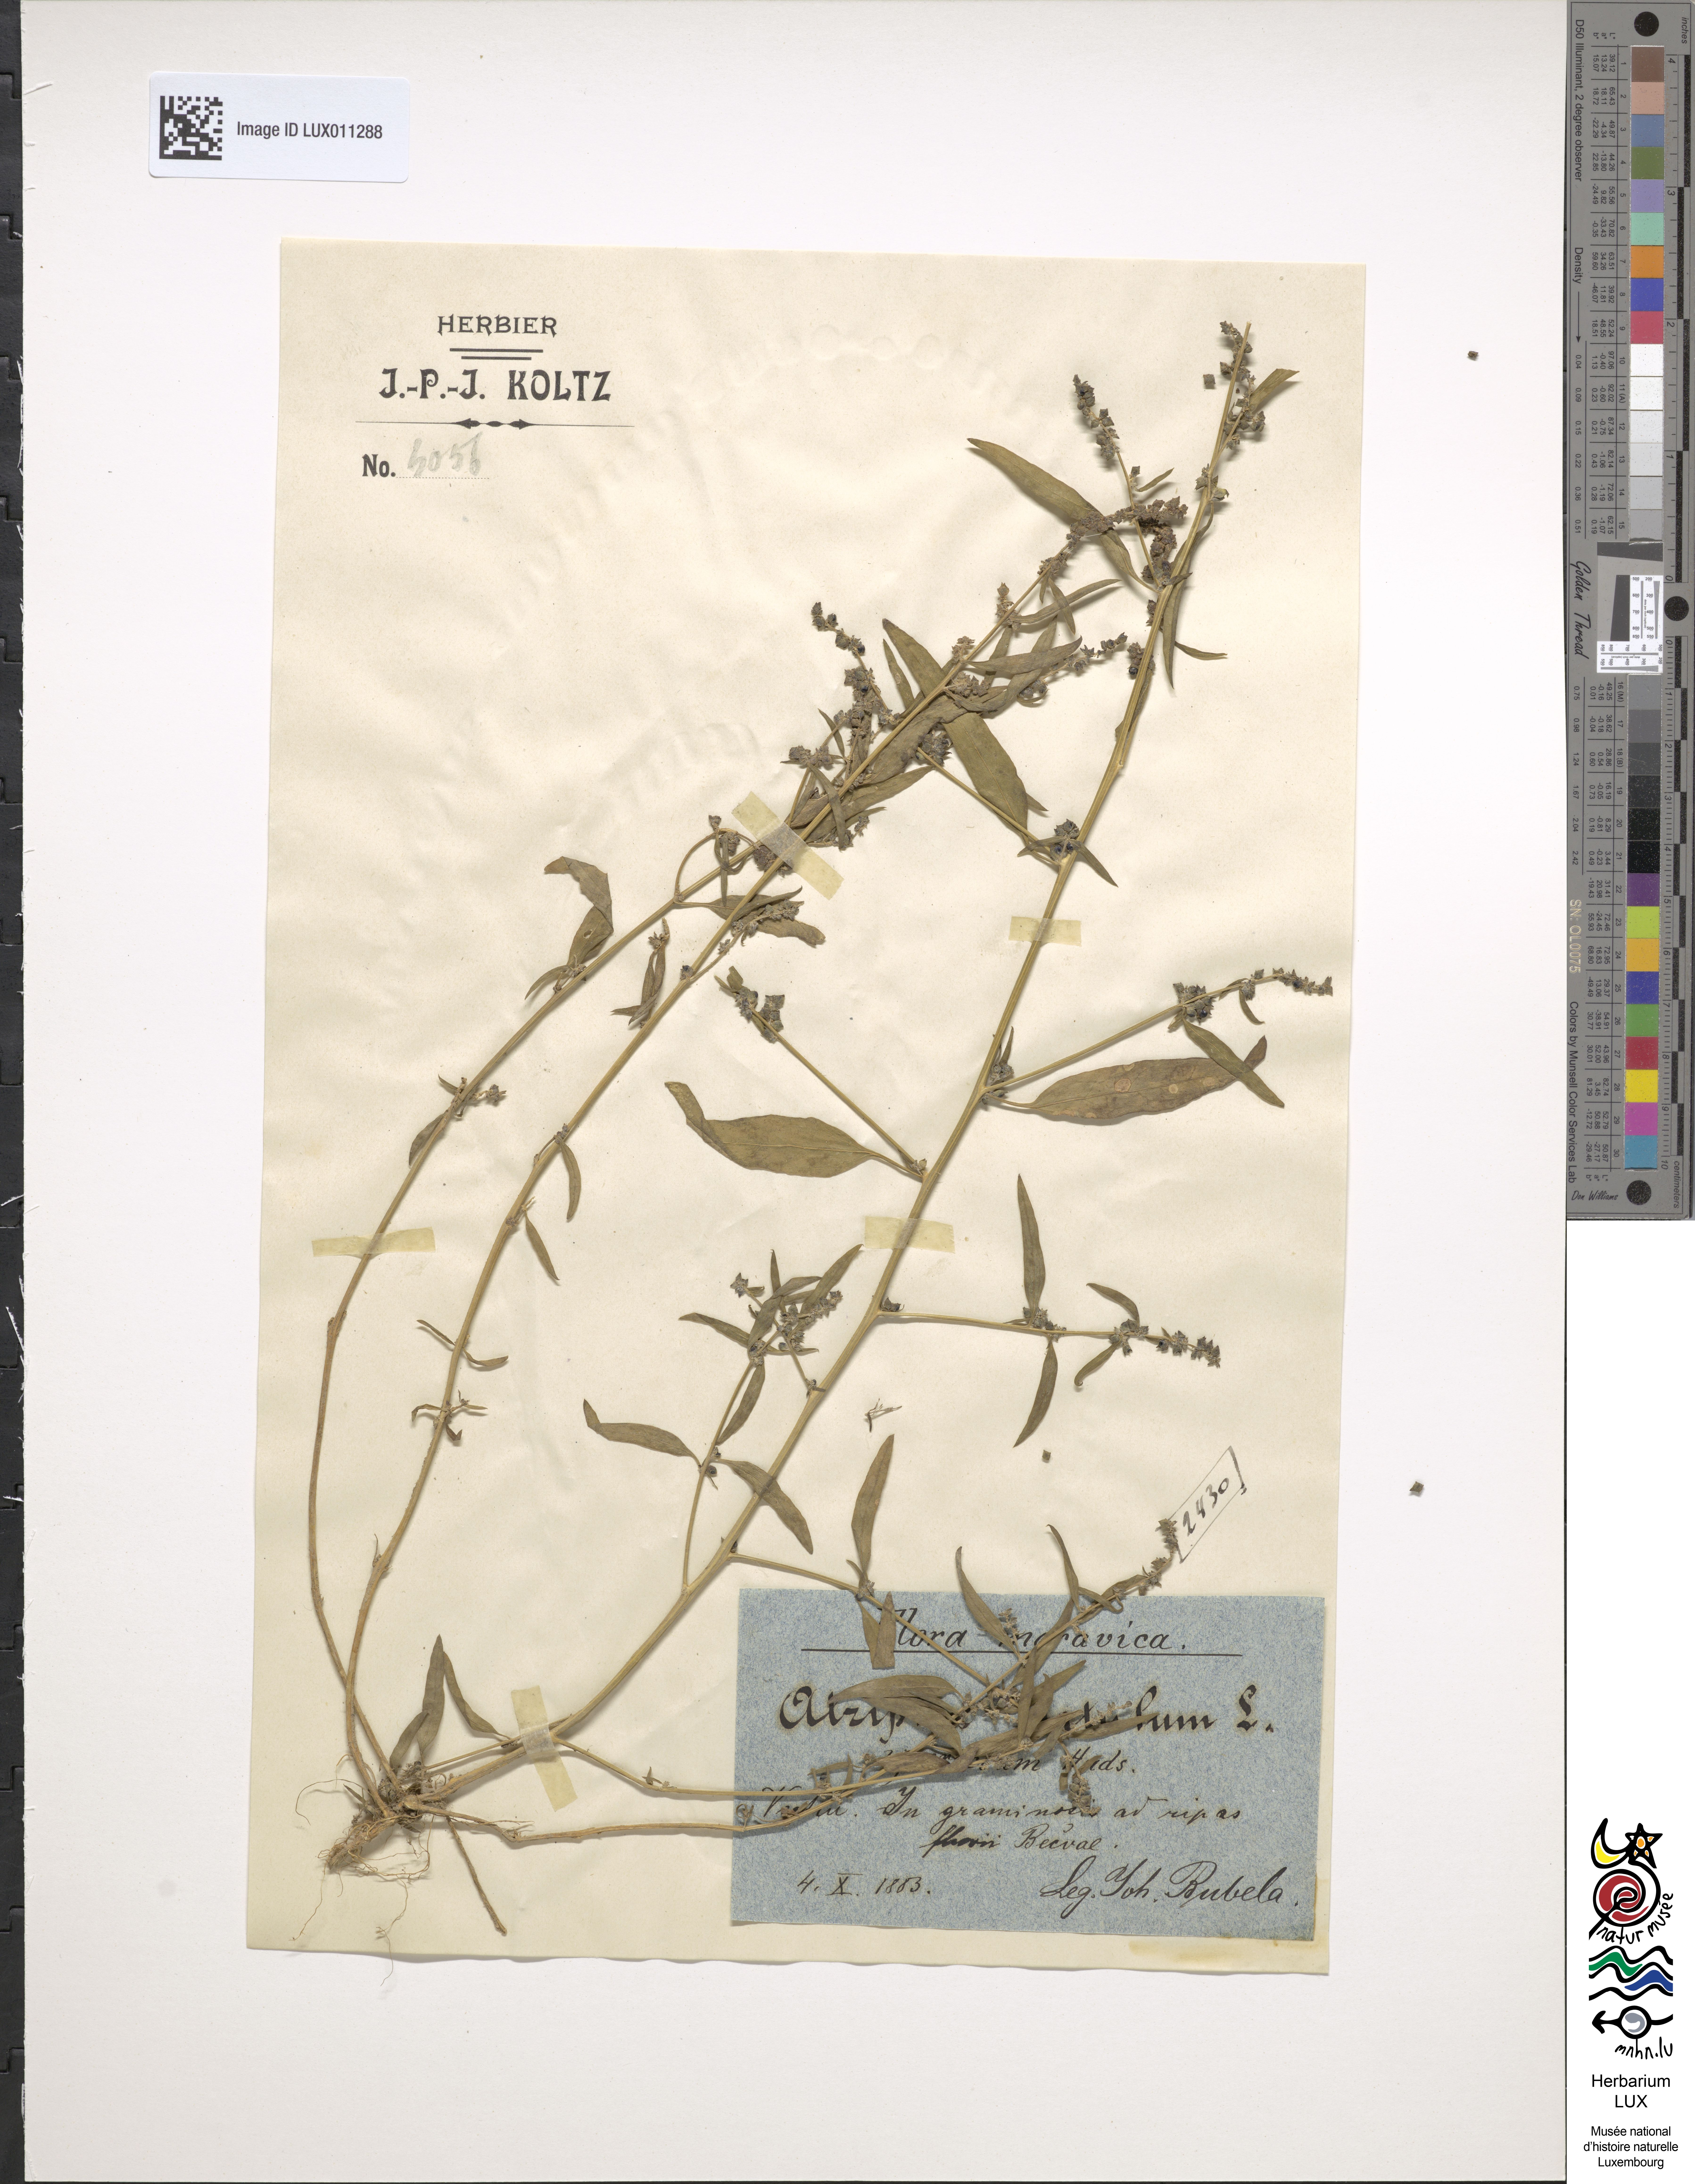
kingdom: Plantae
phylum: Tracheophyta
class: Magnoliopsida
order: Caryophyllales
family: Amaranthaceae
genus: Atriplex
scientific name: Atriplex patula
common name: Common orache
